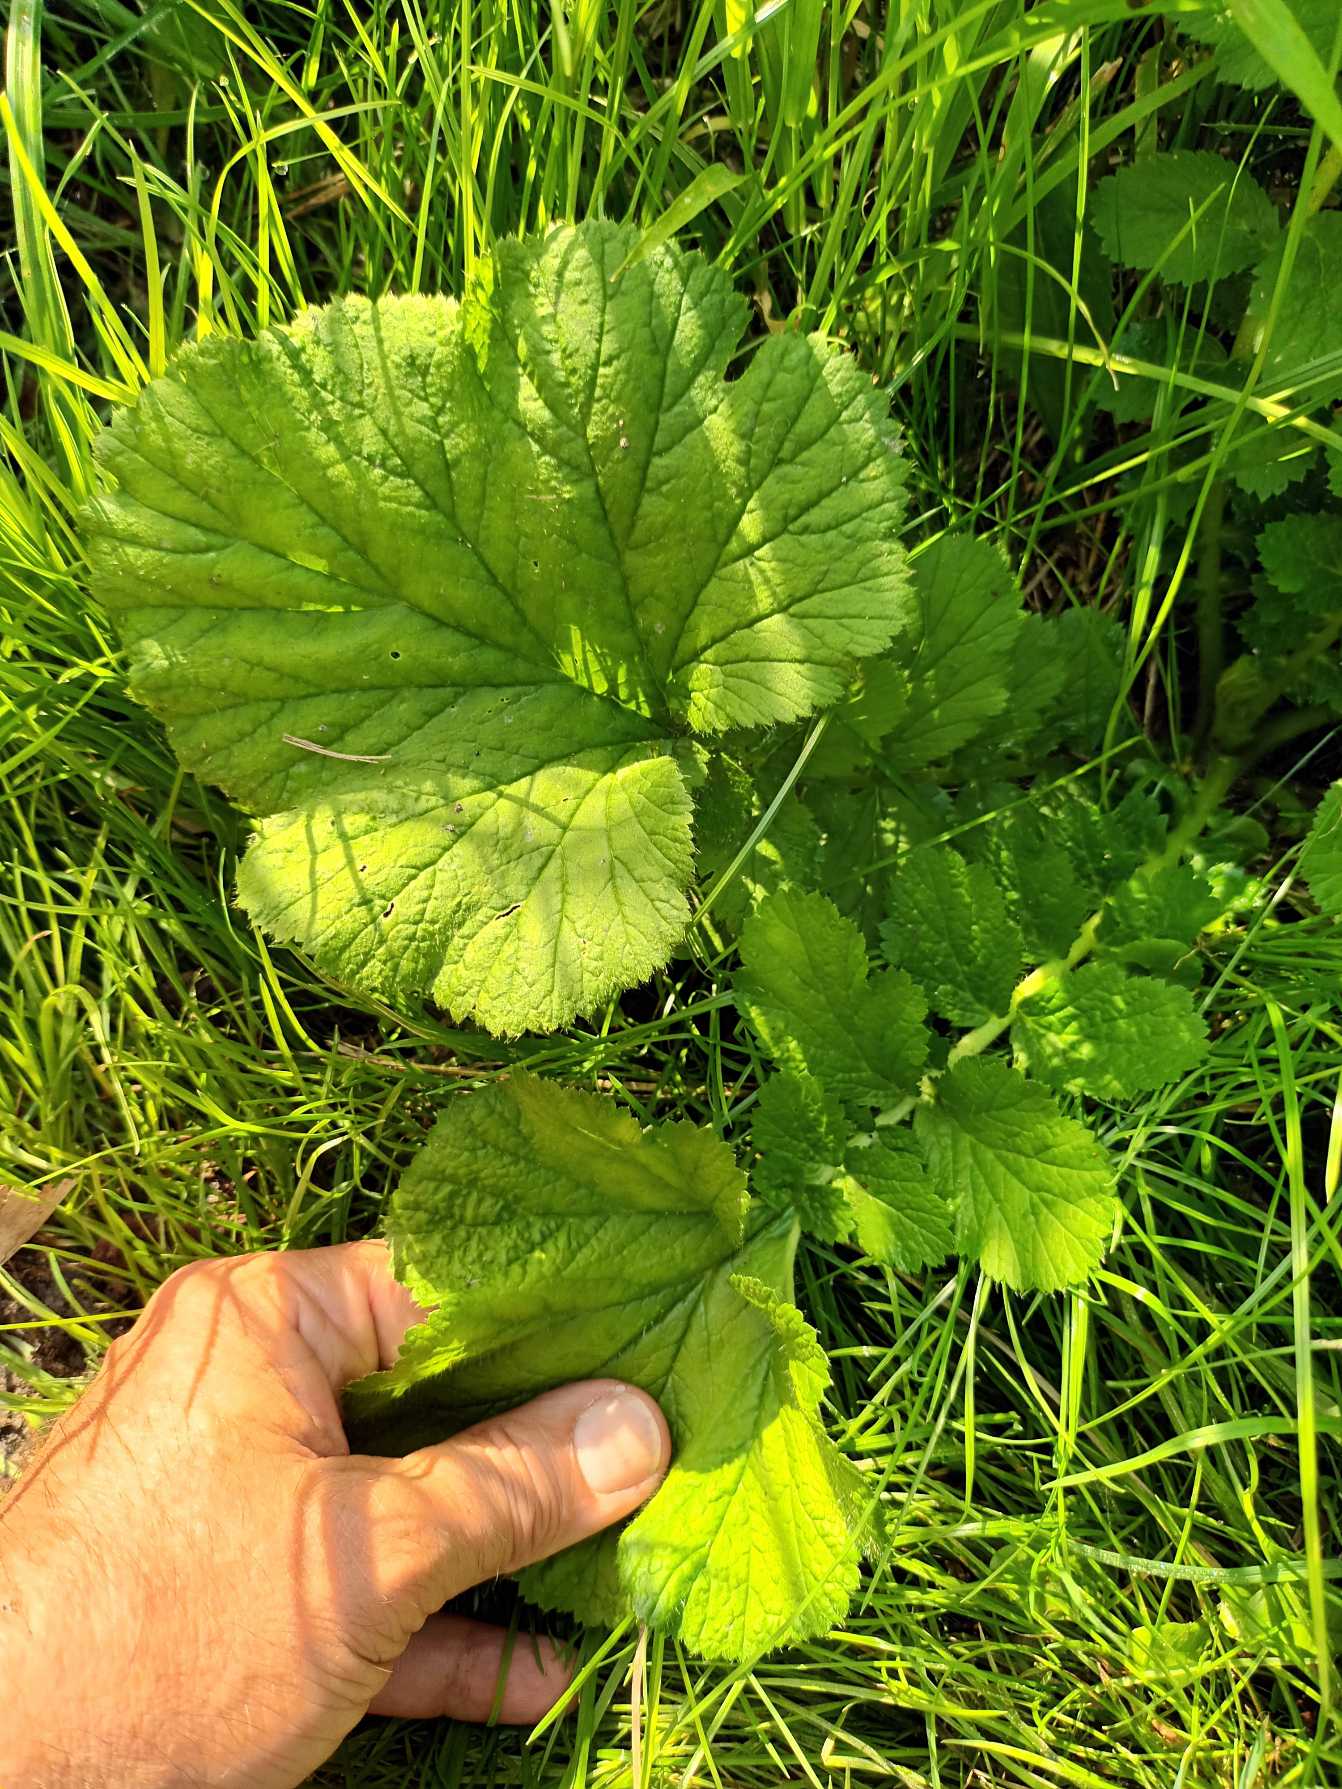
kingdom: Plantae
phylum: Tracheophyta
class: Magnoliopsida
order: Rosales
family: Rosaceae
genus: Geum
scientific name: Geum macrophyllum
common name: Amerikansk nellikerod
